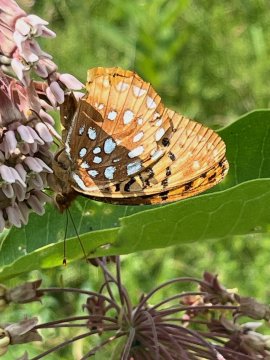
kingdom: Animalia
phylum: Arthropoda
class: Insecta
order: Lepidoptera
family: Nymphalidae
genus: Speyeria
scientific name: Speyeria cybele
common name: Great Spangled Fritillary
